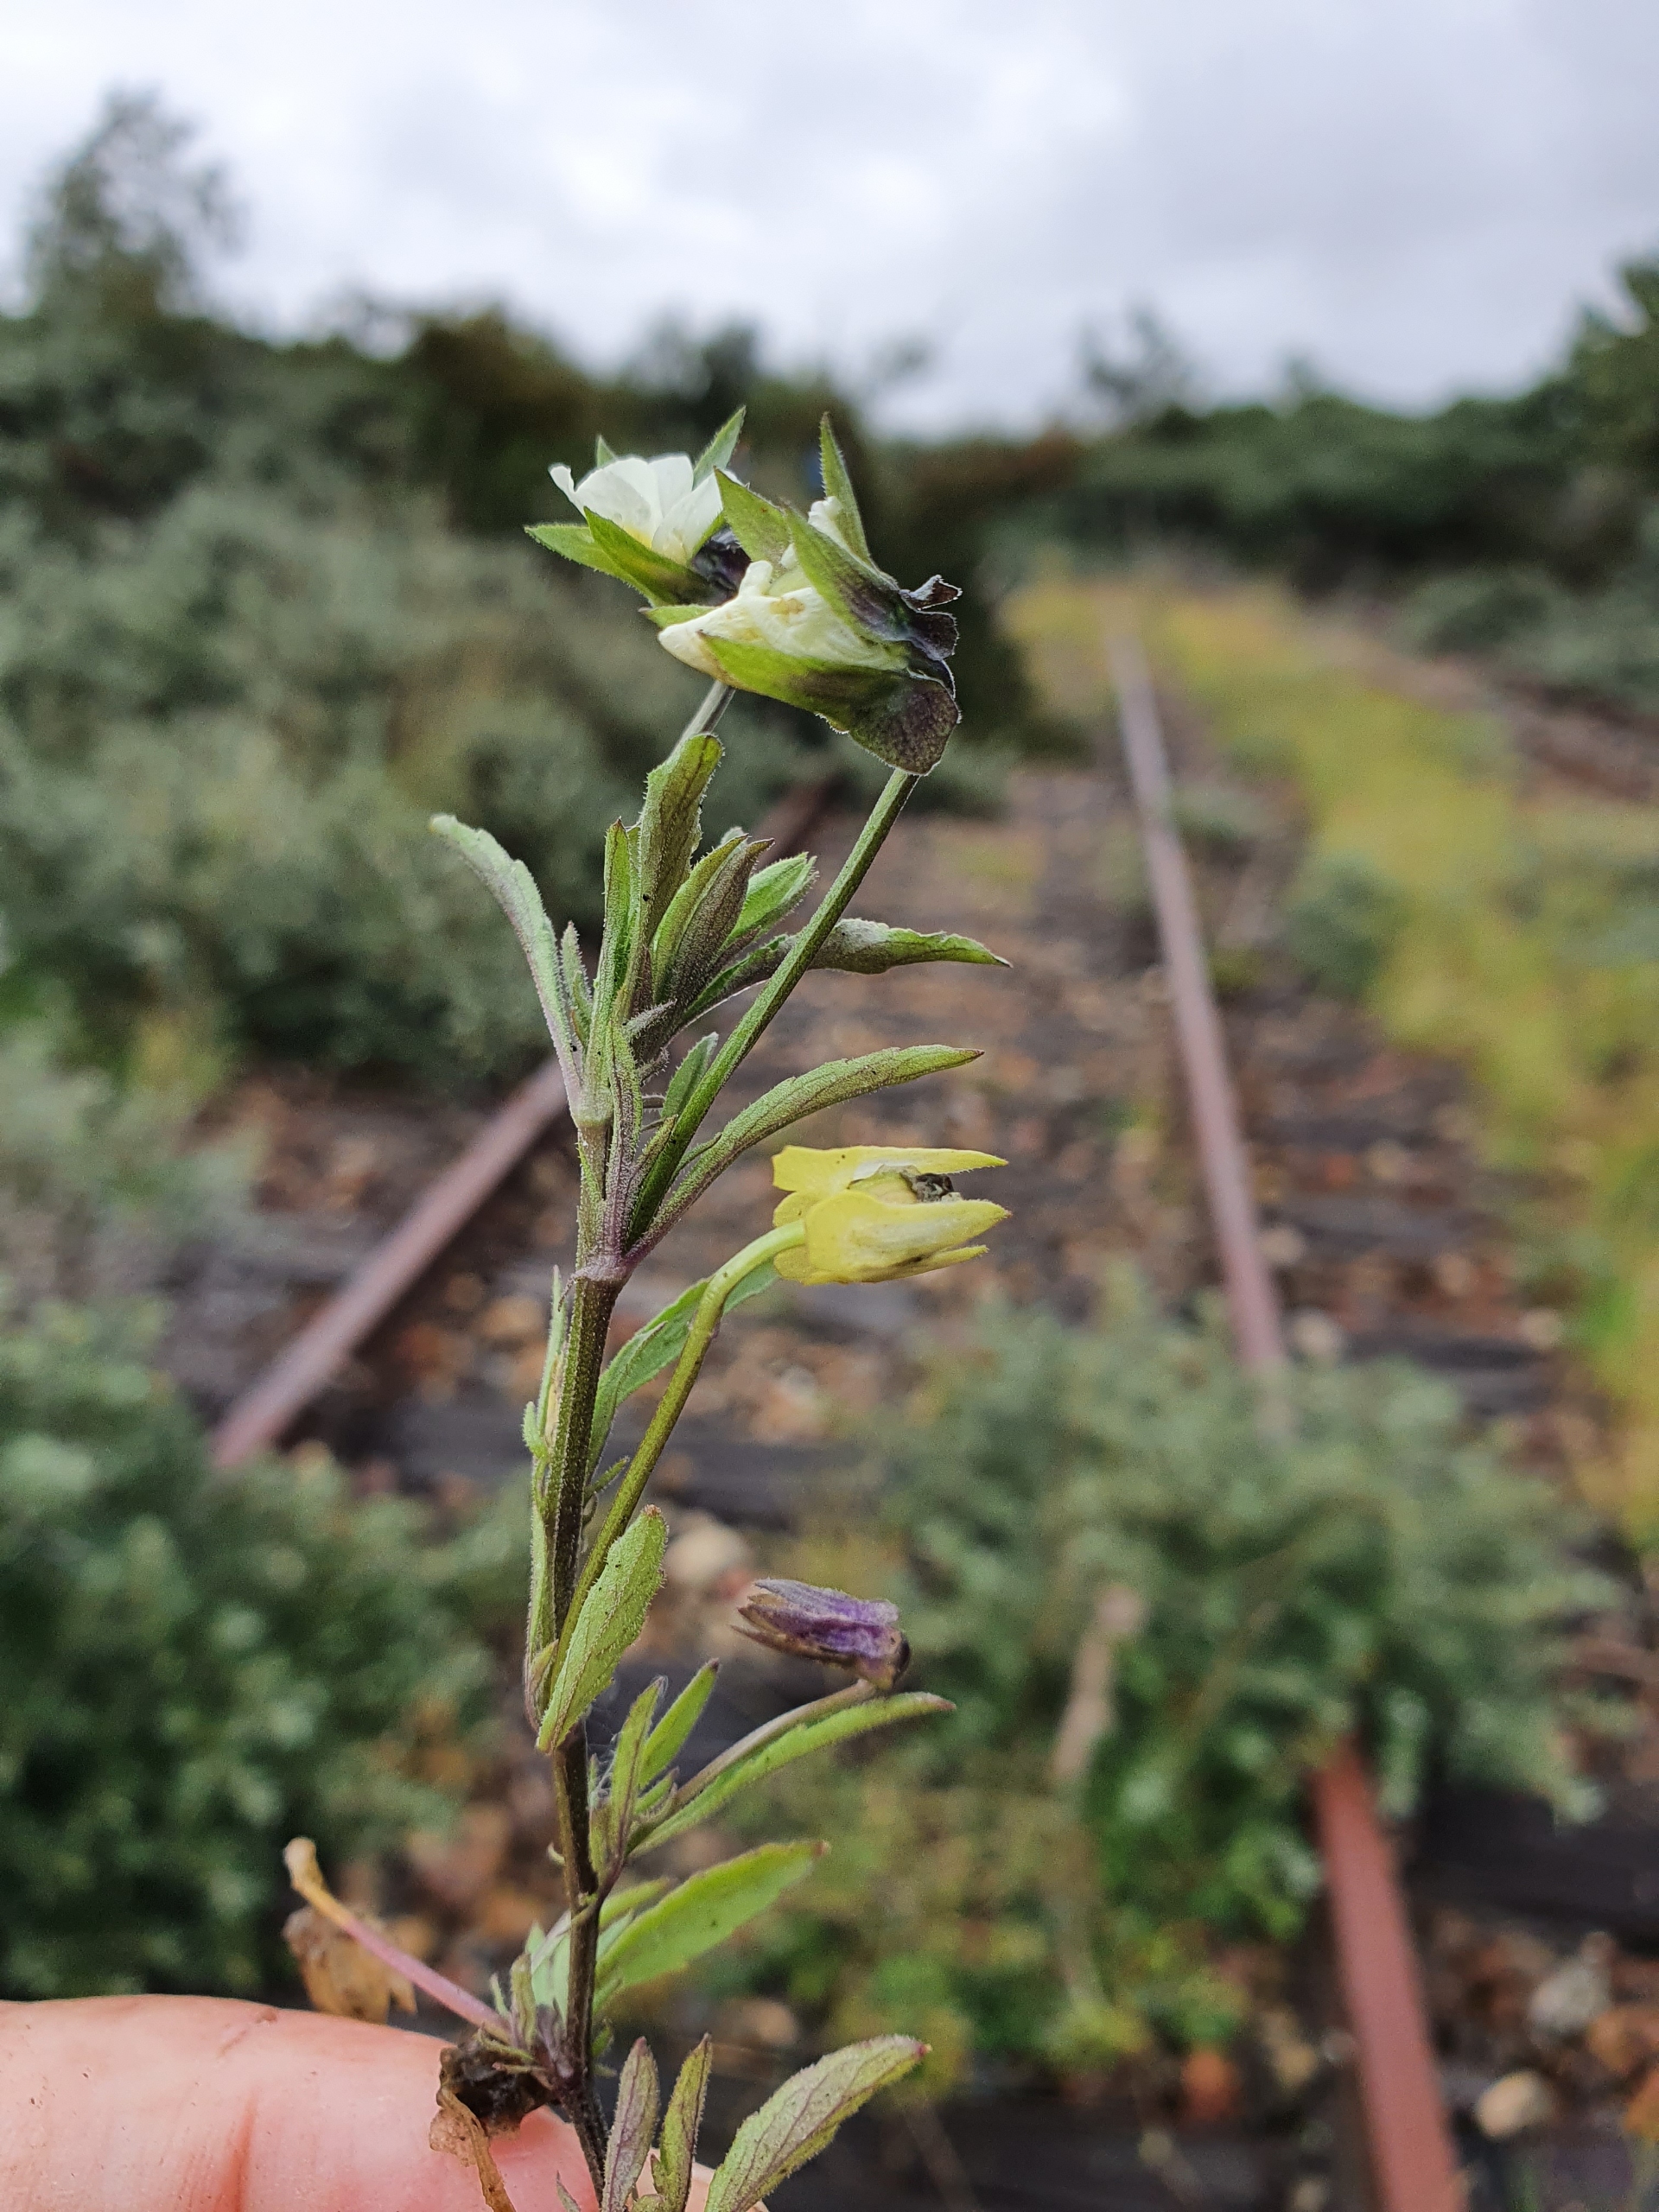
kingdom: Plantae
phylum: Tracheophyta
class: Magnoliopsida
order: Malpighiales
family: Violaceae
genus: Viola
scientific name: Viola arvensis
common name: Ager-stedmoderblomst
